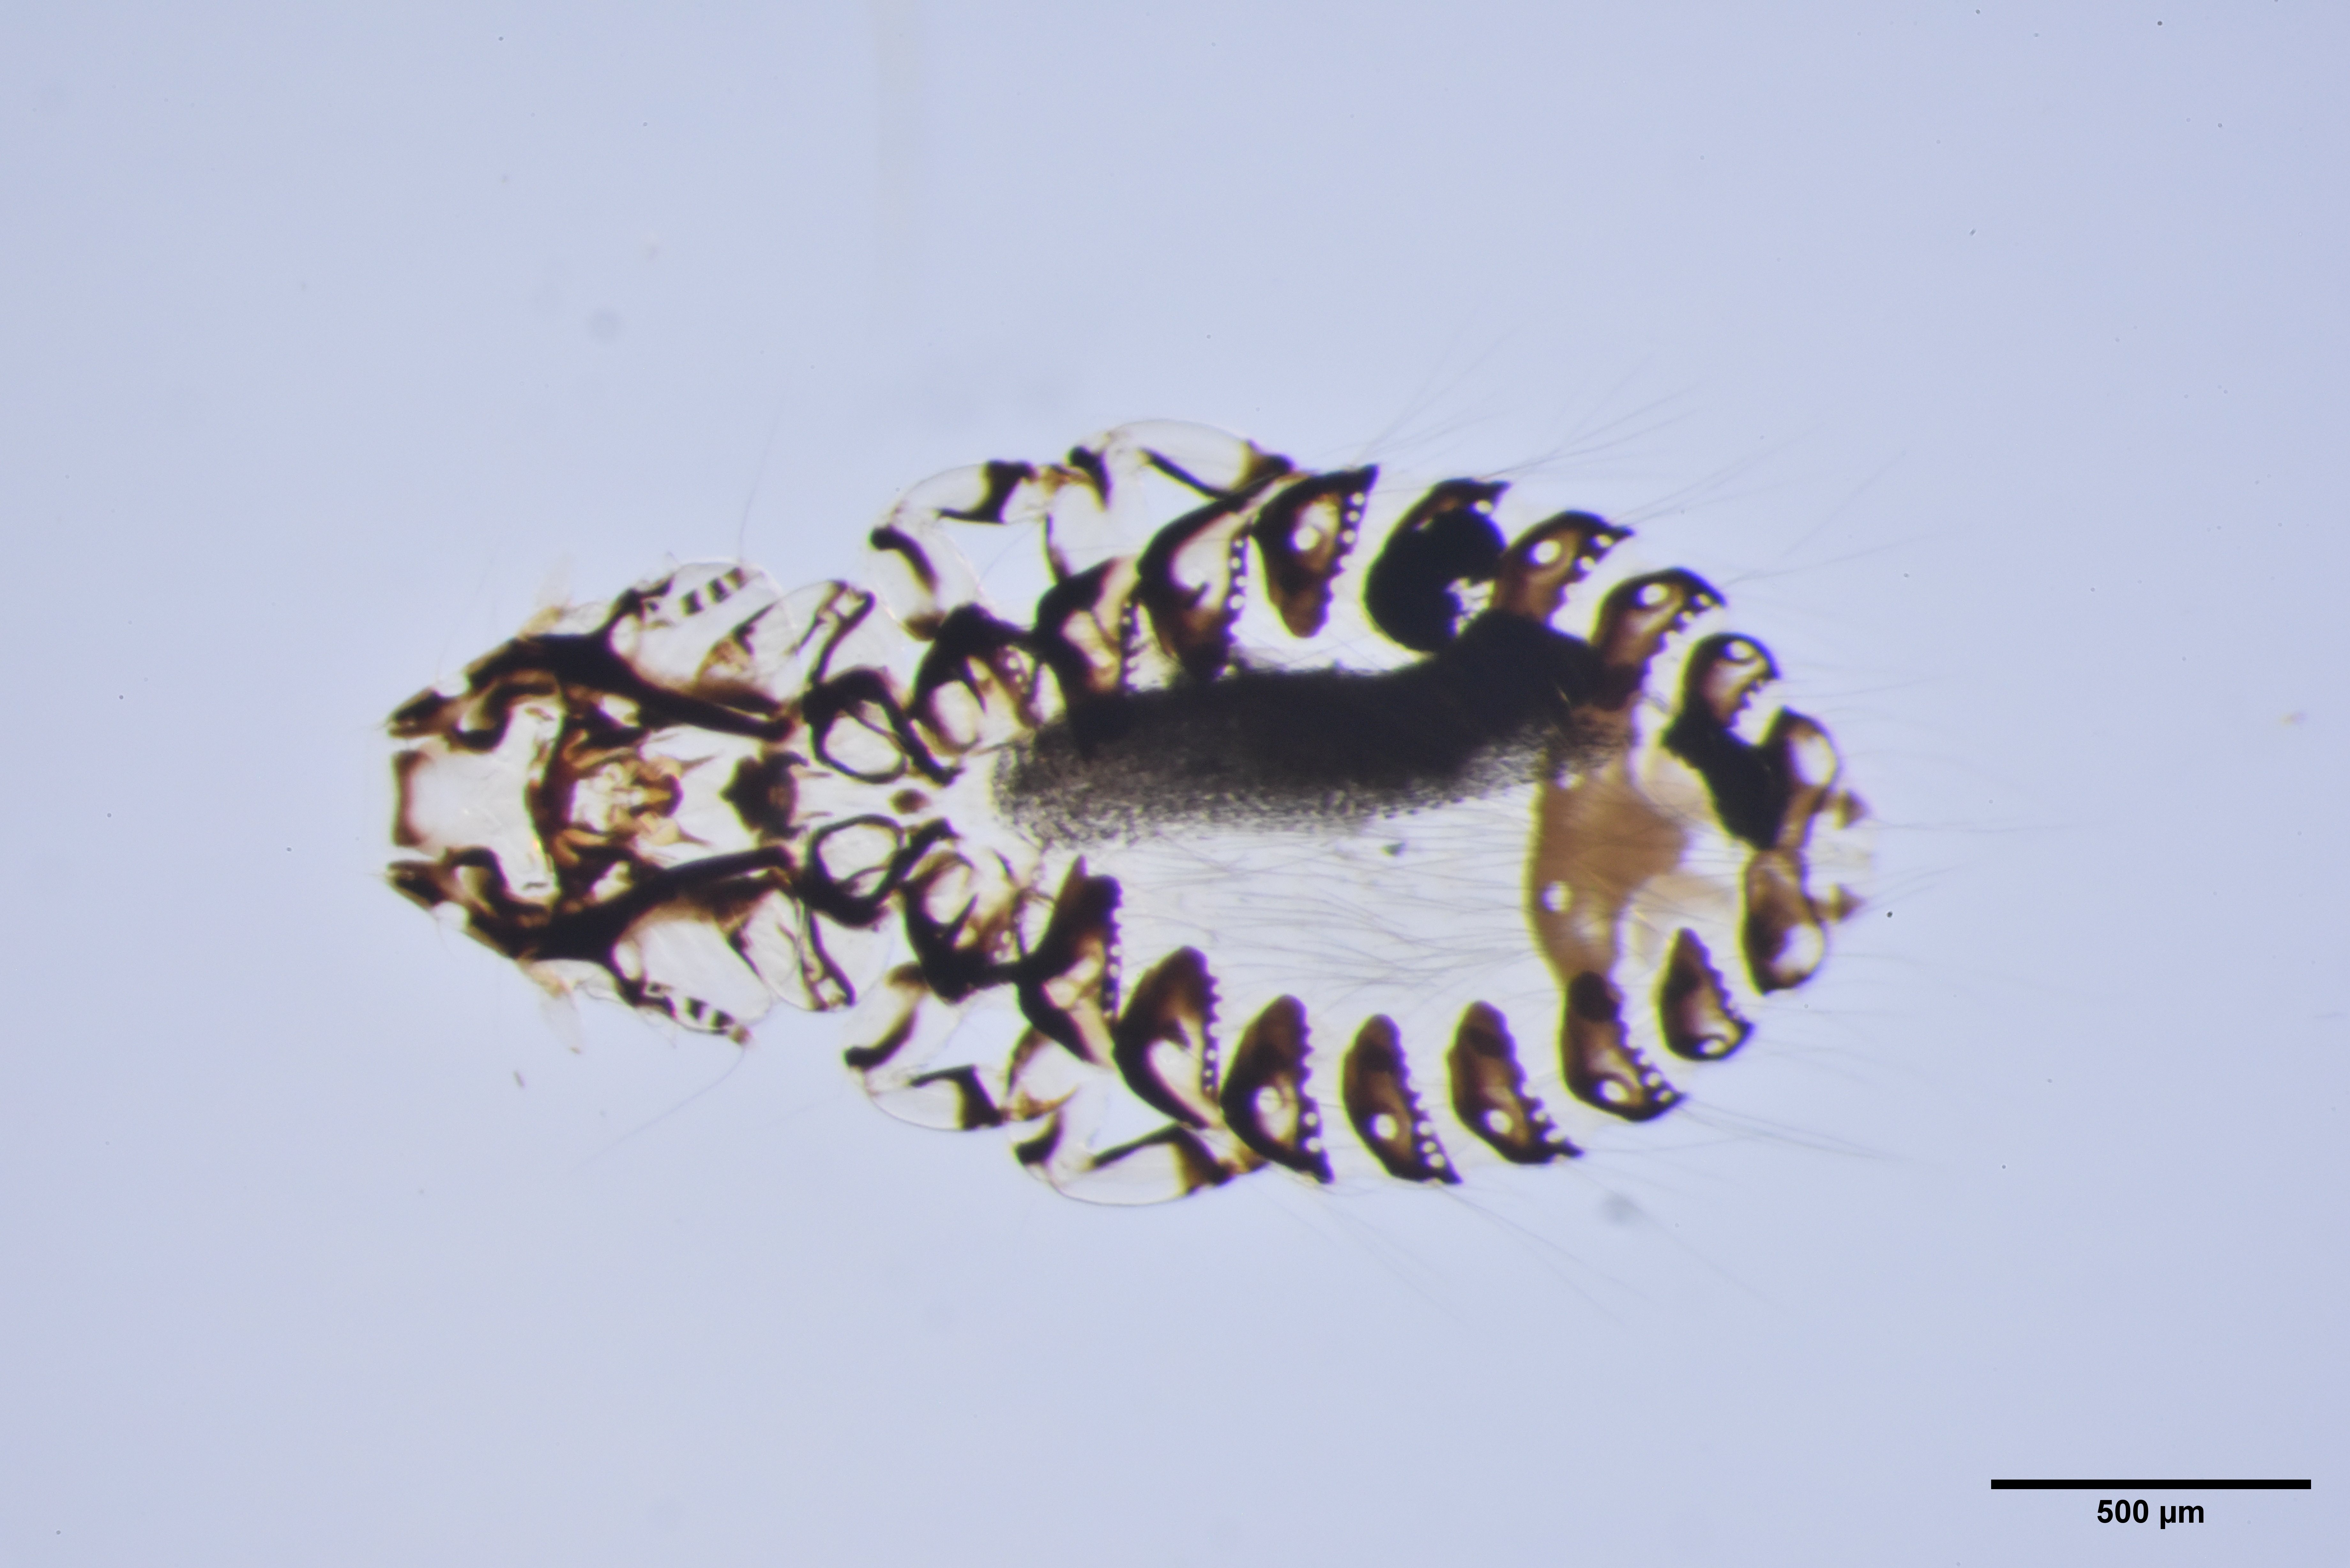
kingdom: Animalia
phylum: Arthropoda
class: Insecta
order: Psocodea
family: Philopteridae
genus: Philopterus
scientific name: Philopterus corvi
